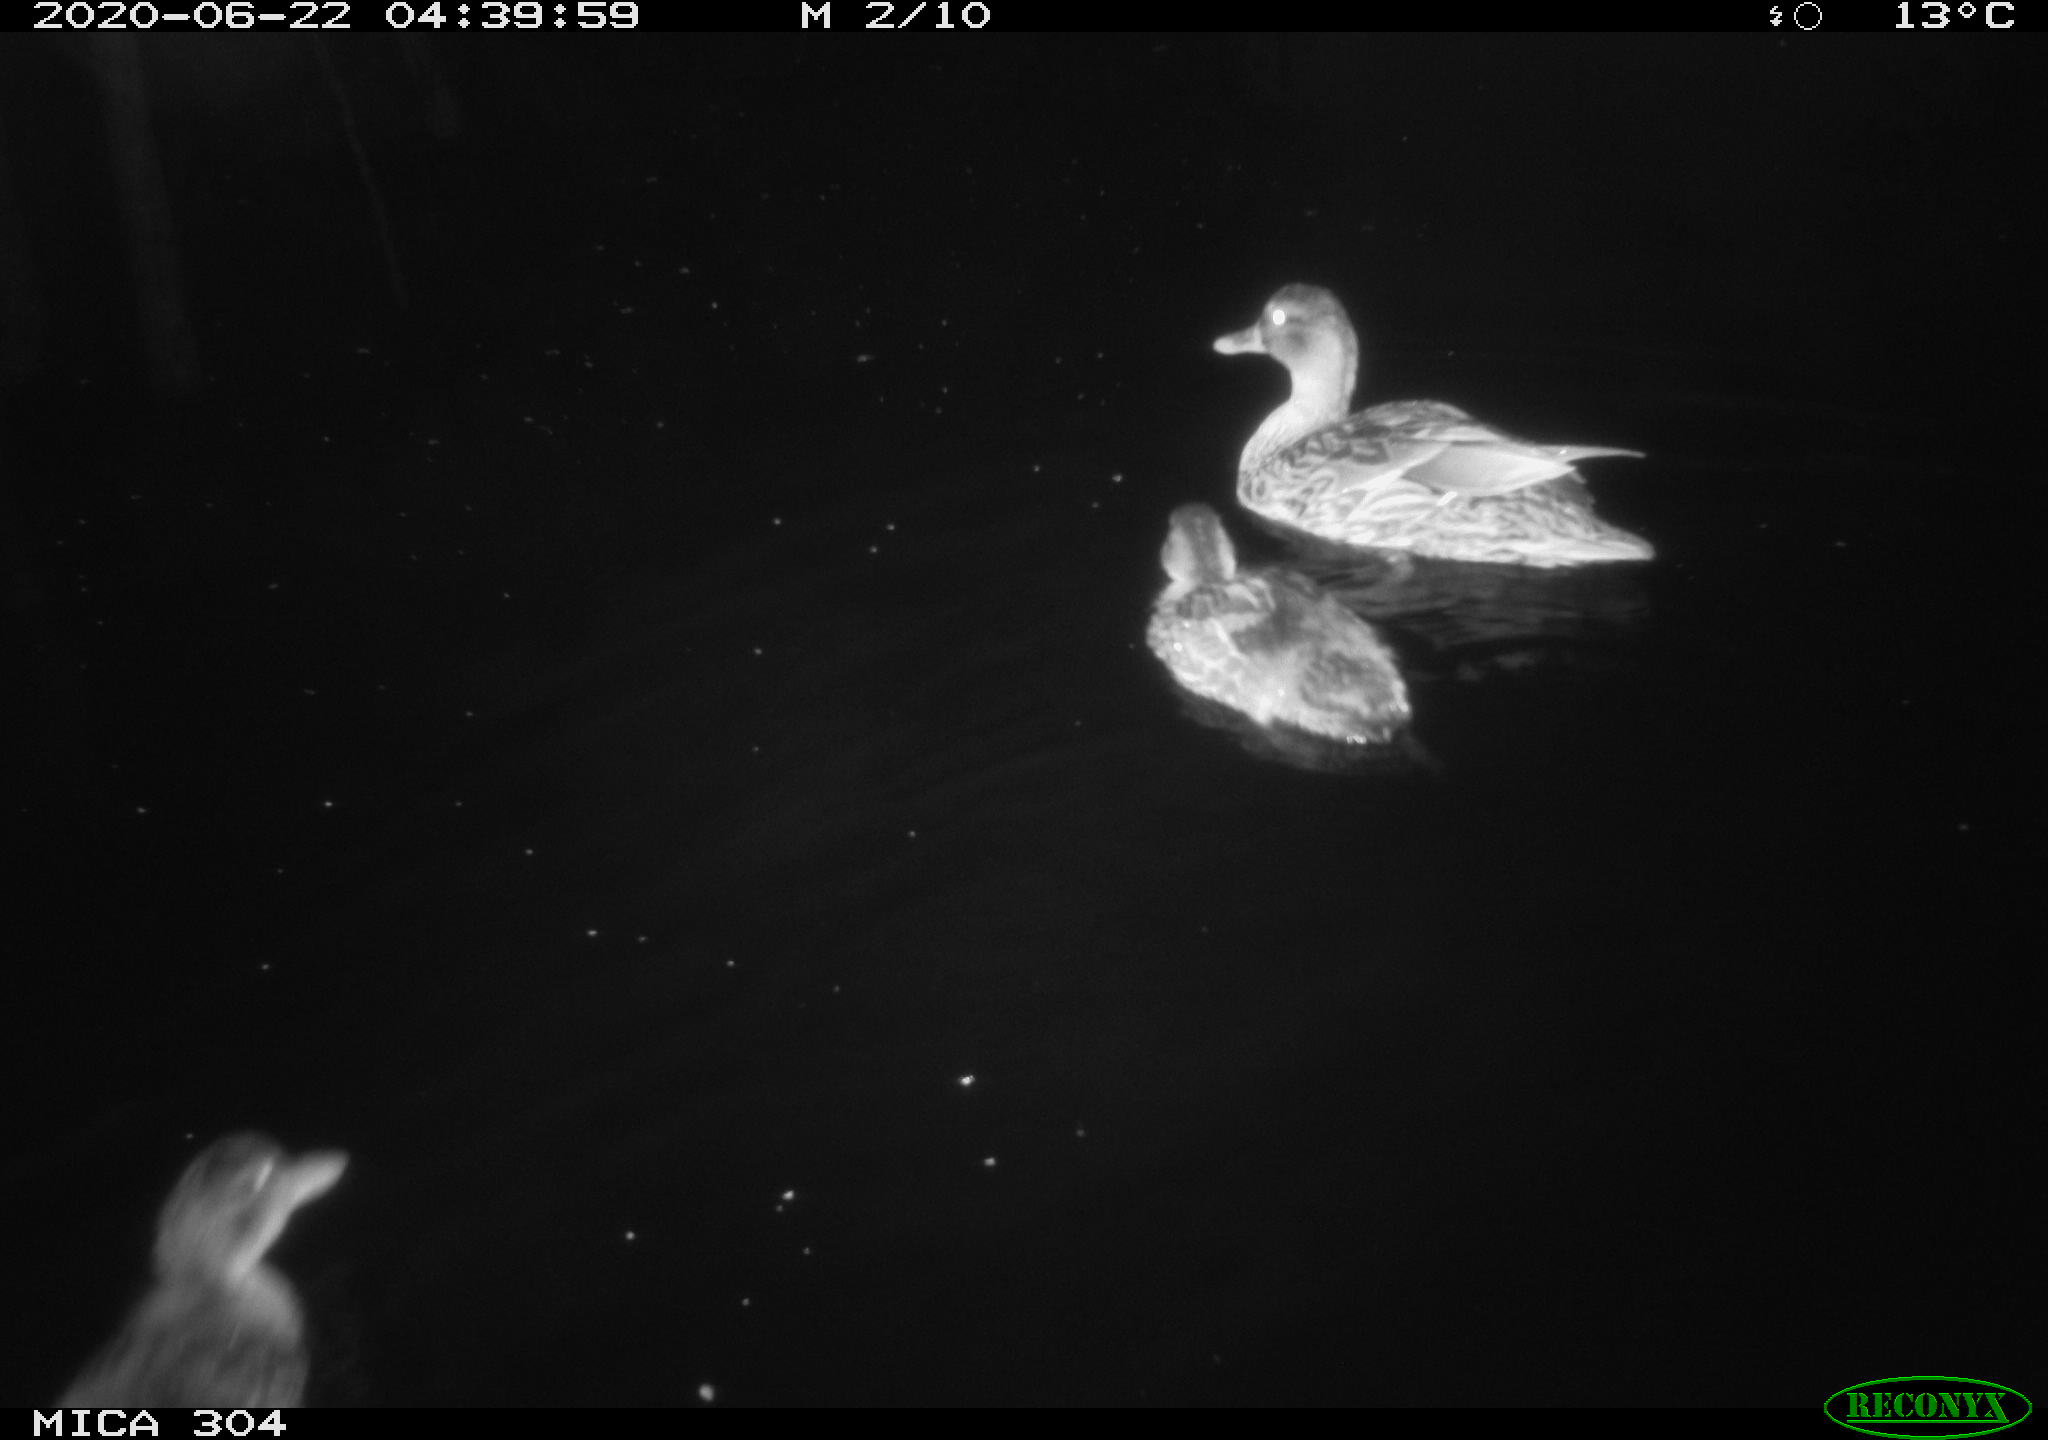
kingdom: Animalia
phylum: Chordata
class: Aves
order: Anseriformes
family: Anatidae
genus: Anas
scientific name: Anas platyrhynchos
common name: Mallard
